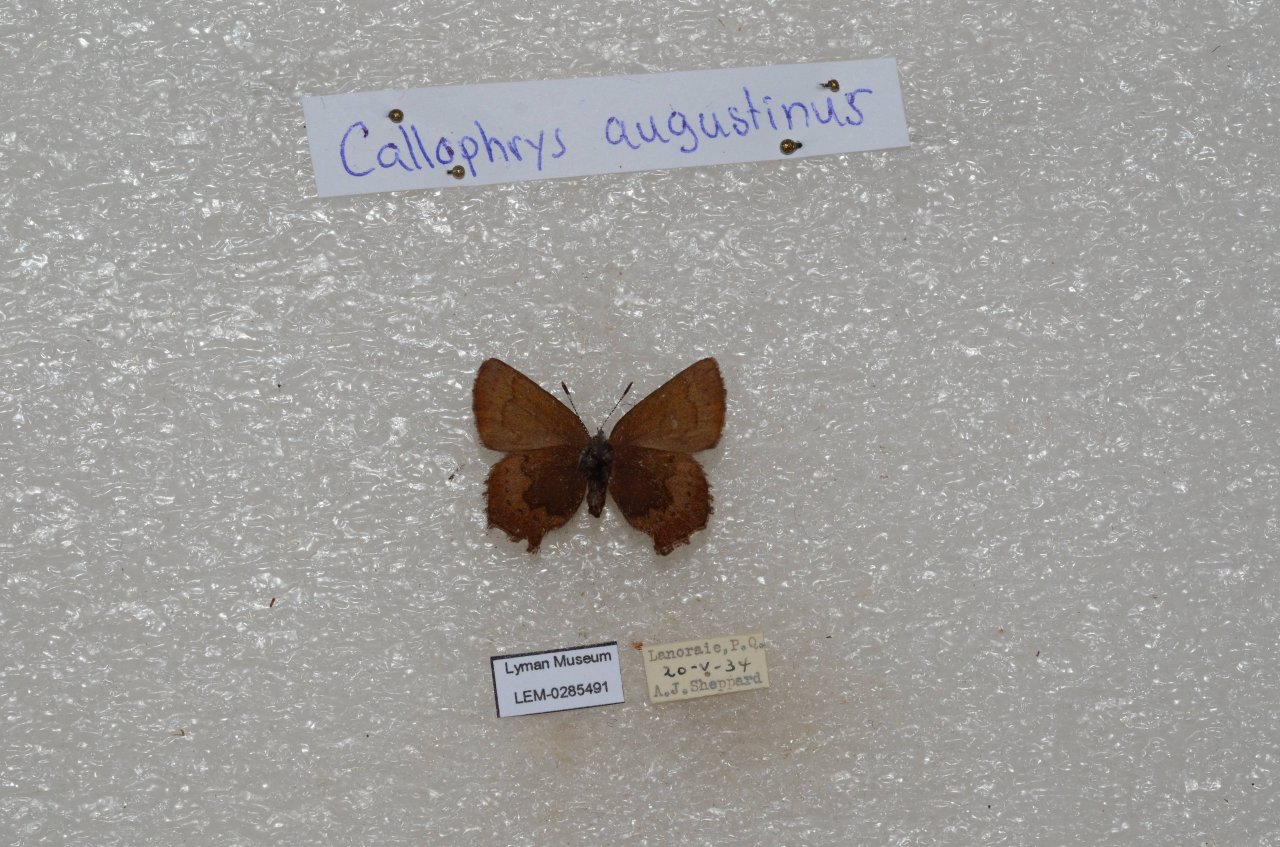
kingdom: Animalia
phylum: Arthropoda
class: Insecta
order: Lepidoptera
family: Lycaenidae
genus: Incisalia
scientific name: Incisalia irioides
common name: Brown Elfin
